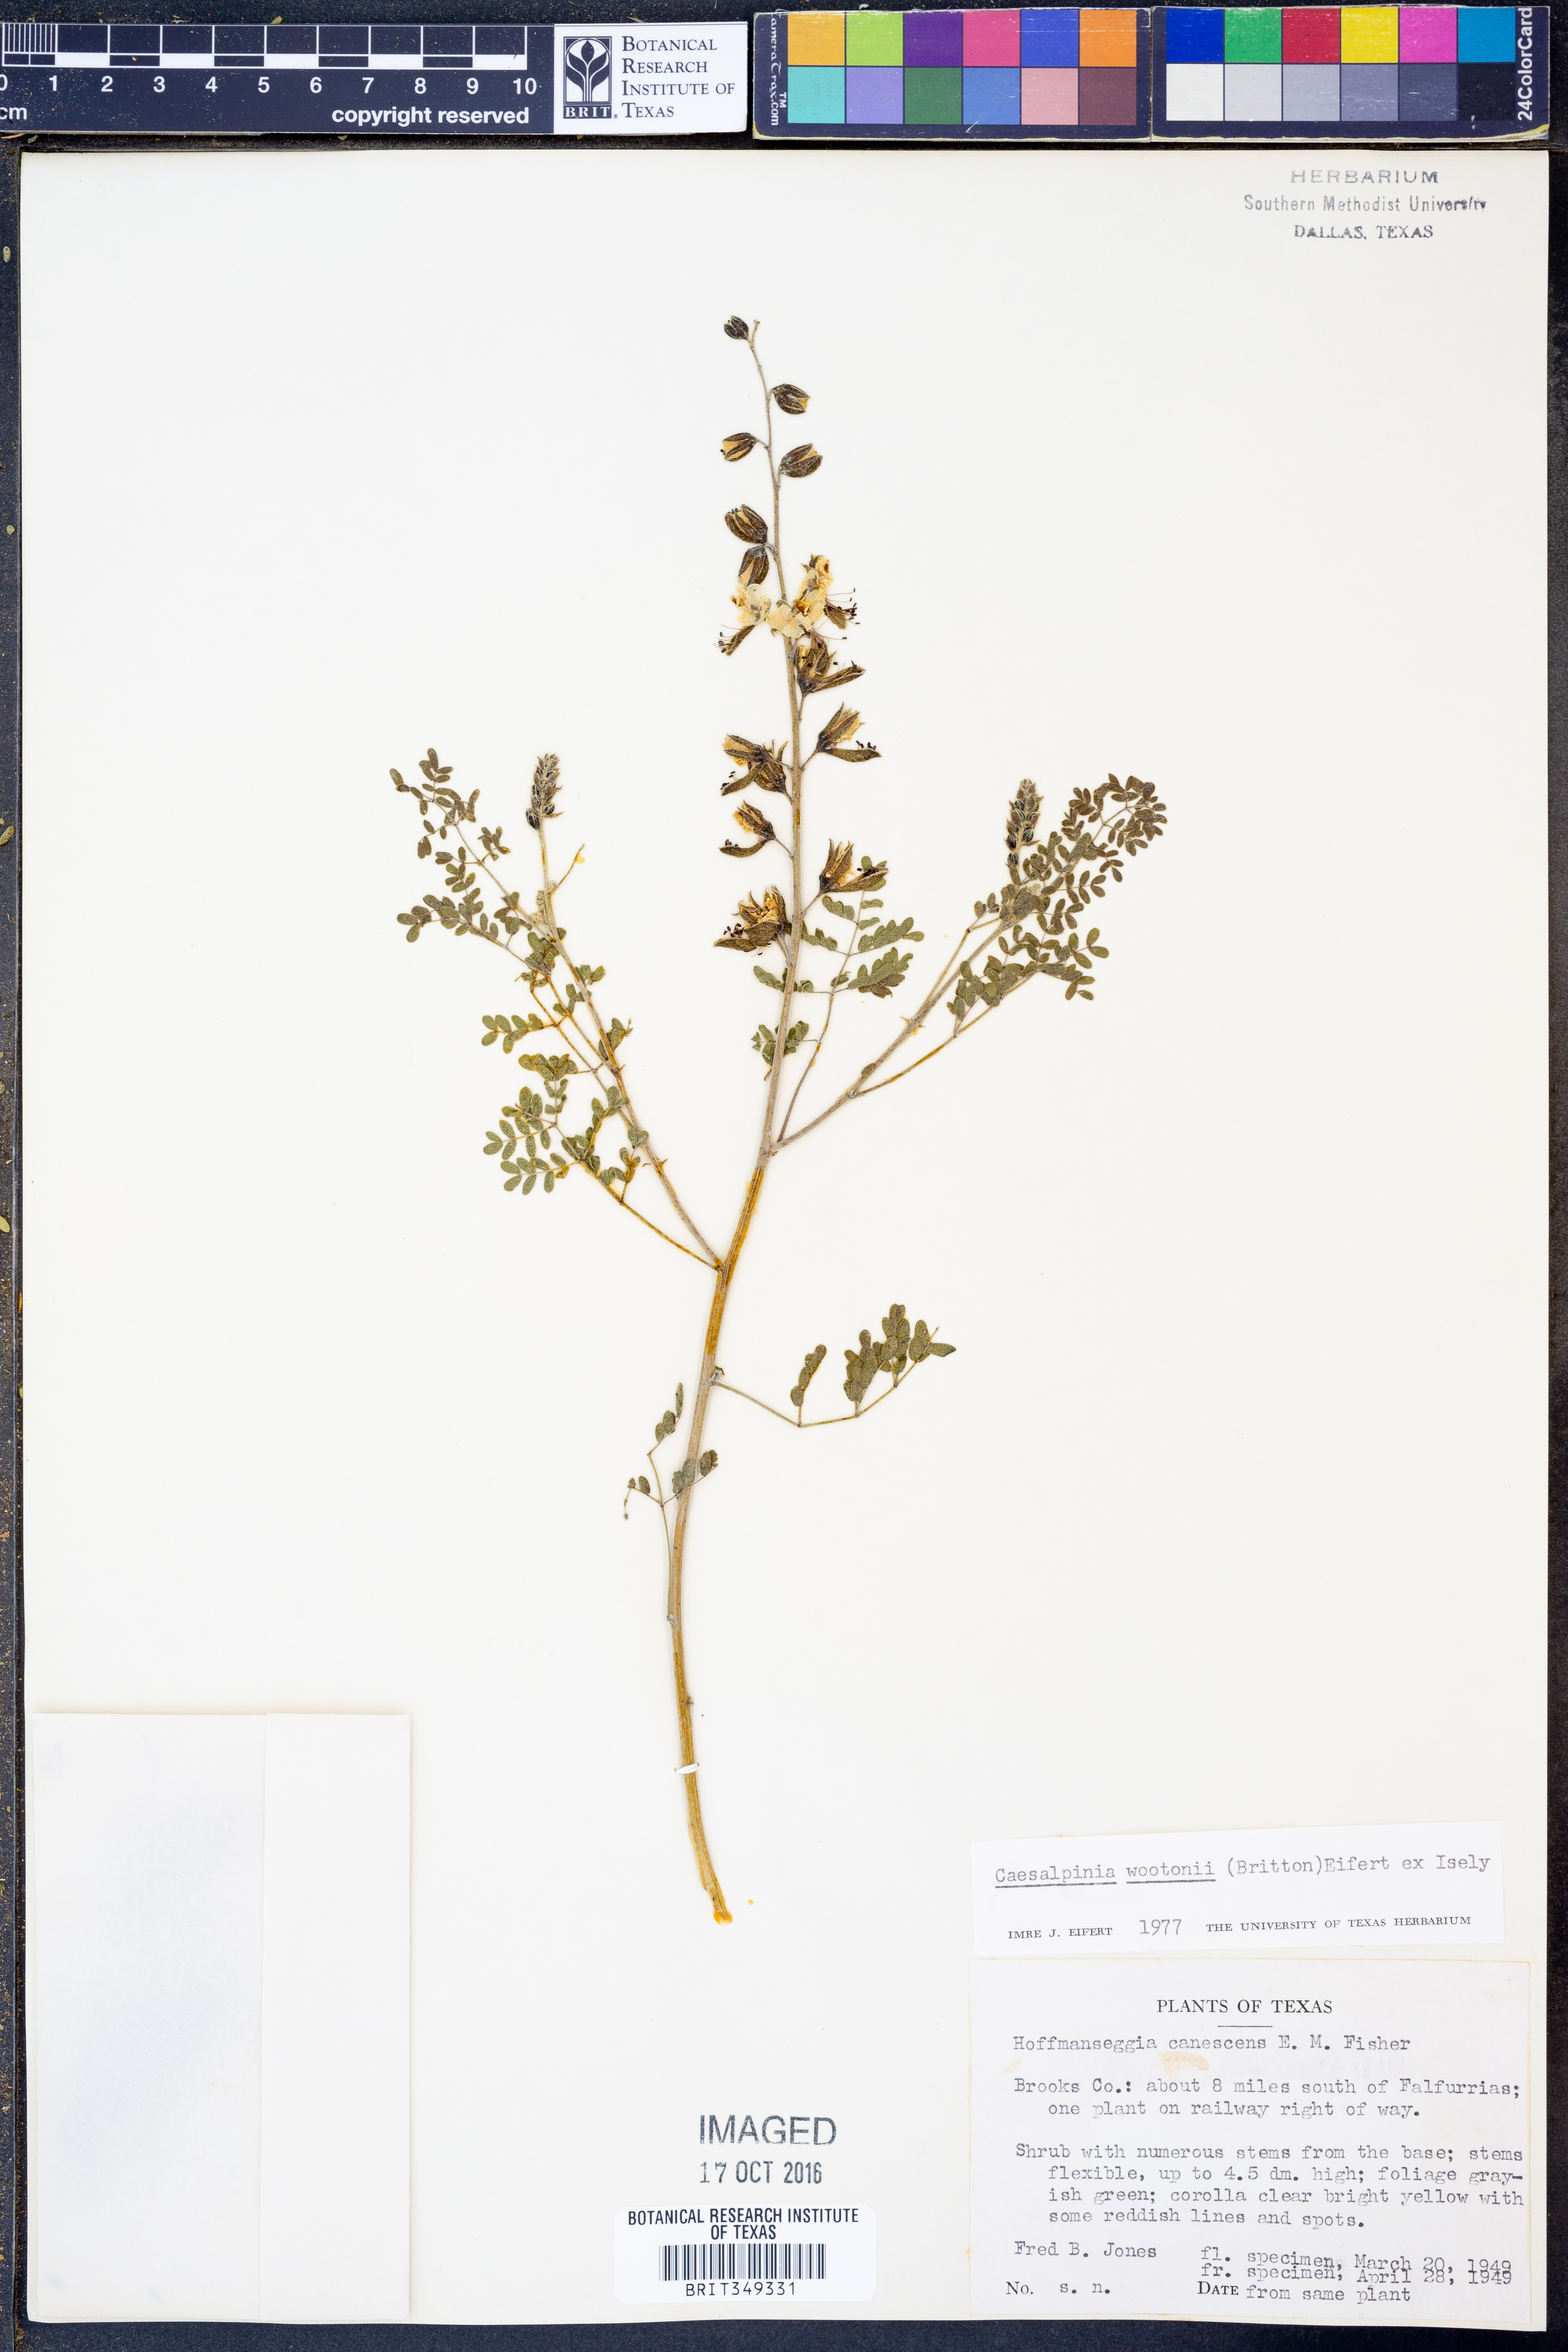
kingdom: Plantae
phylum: Tracheophyta
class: Magnoliopsida
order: Fabales
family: Fabaceae
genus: Pomaria
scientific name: Pomaria wootonii
